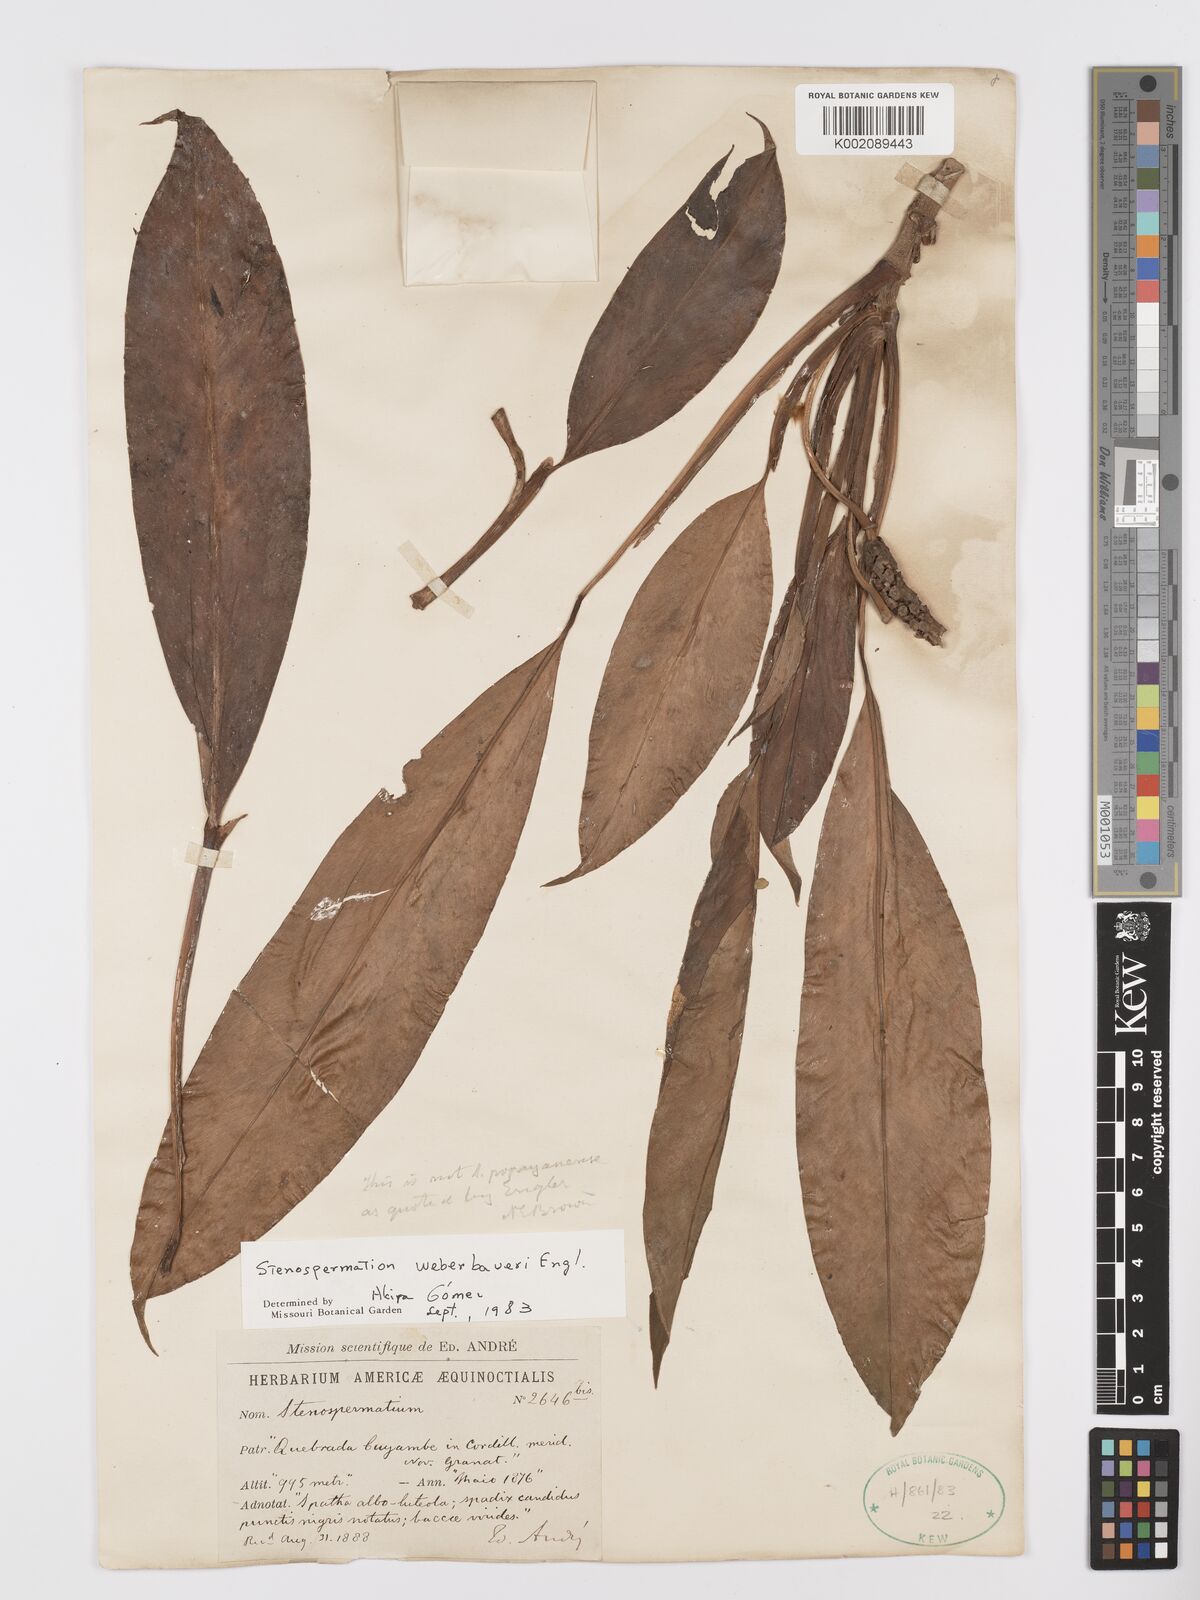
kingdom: Plantae
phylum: Tracheophyta
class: Liliopsida
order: Alismatales
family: Araceae
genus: Stenospermation
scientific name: Stenospermation weberbaueri
